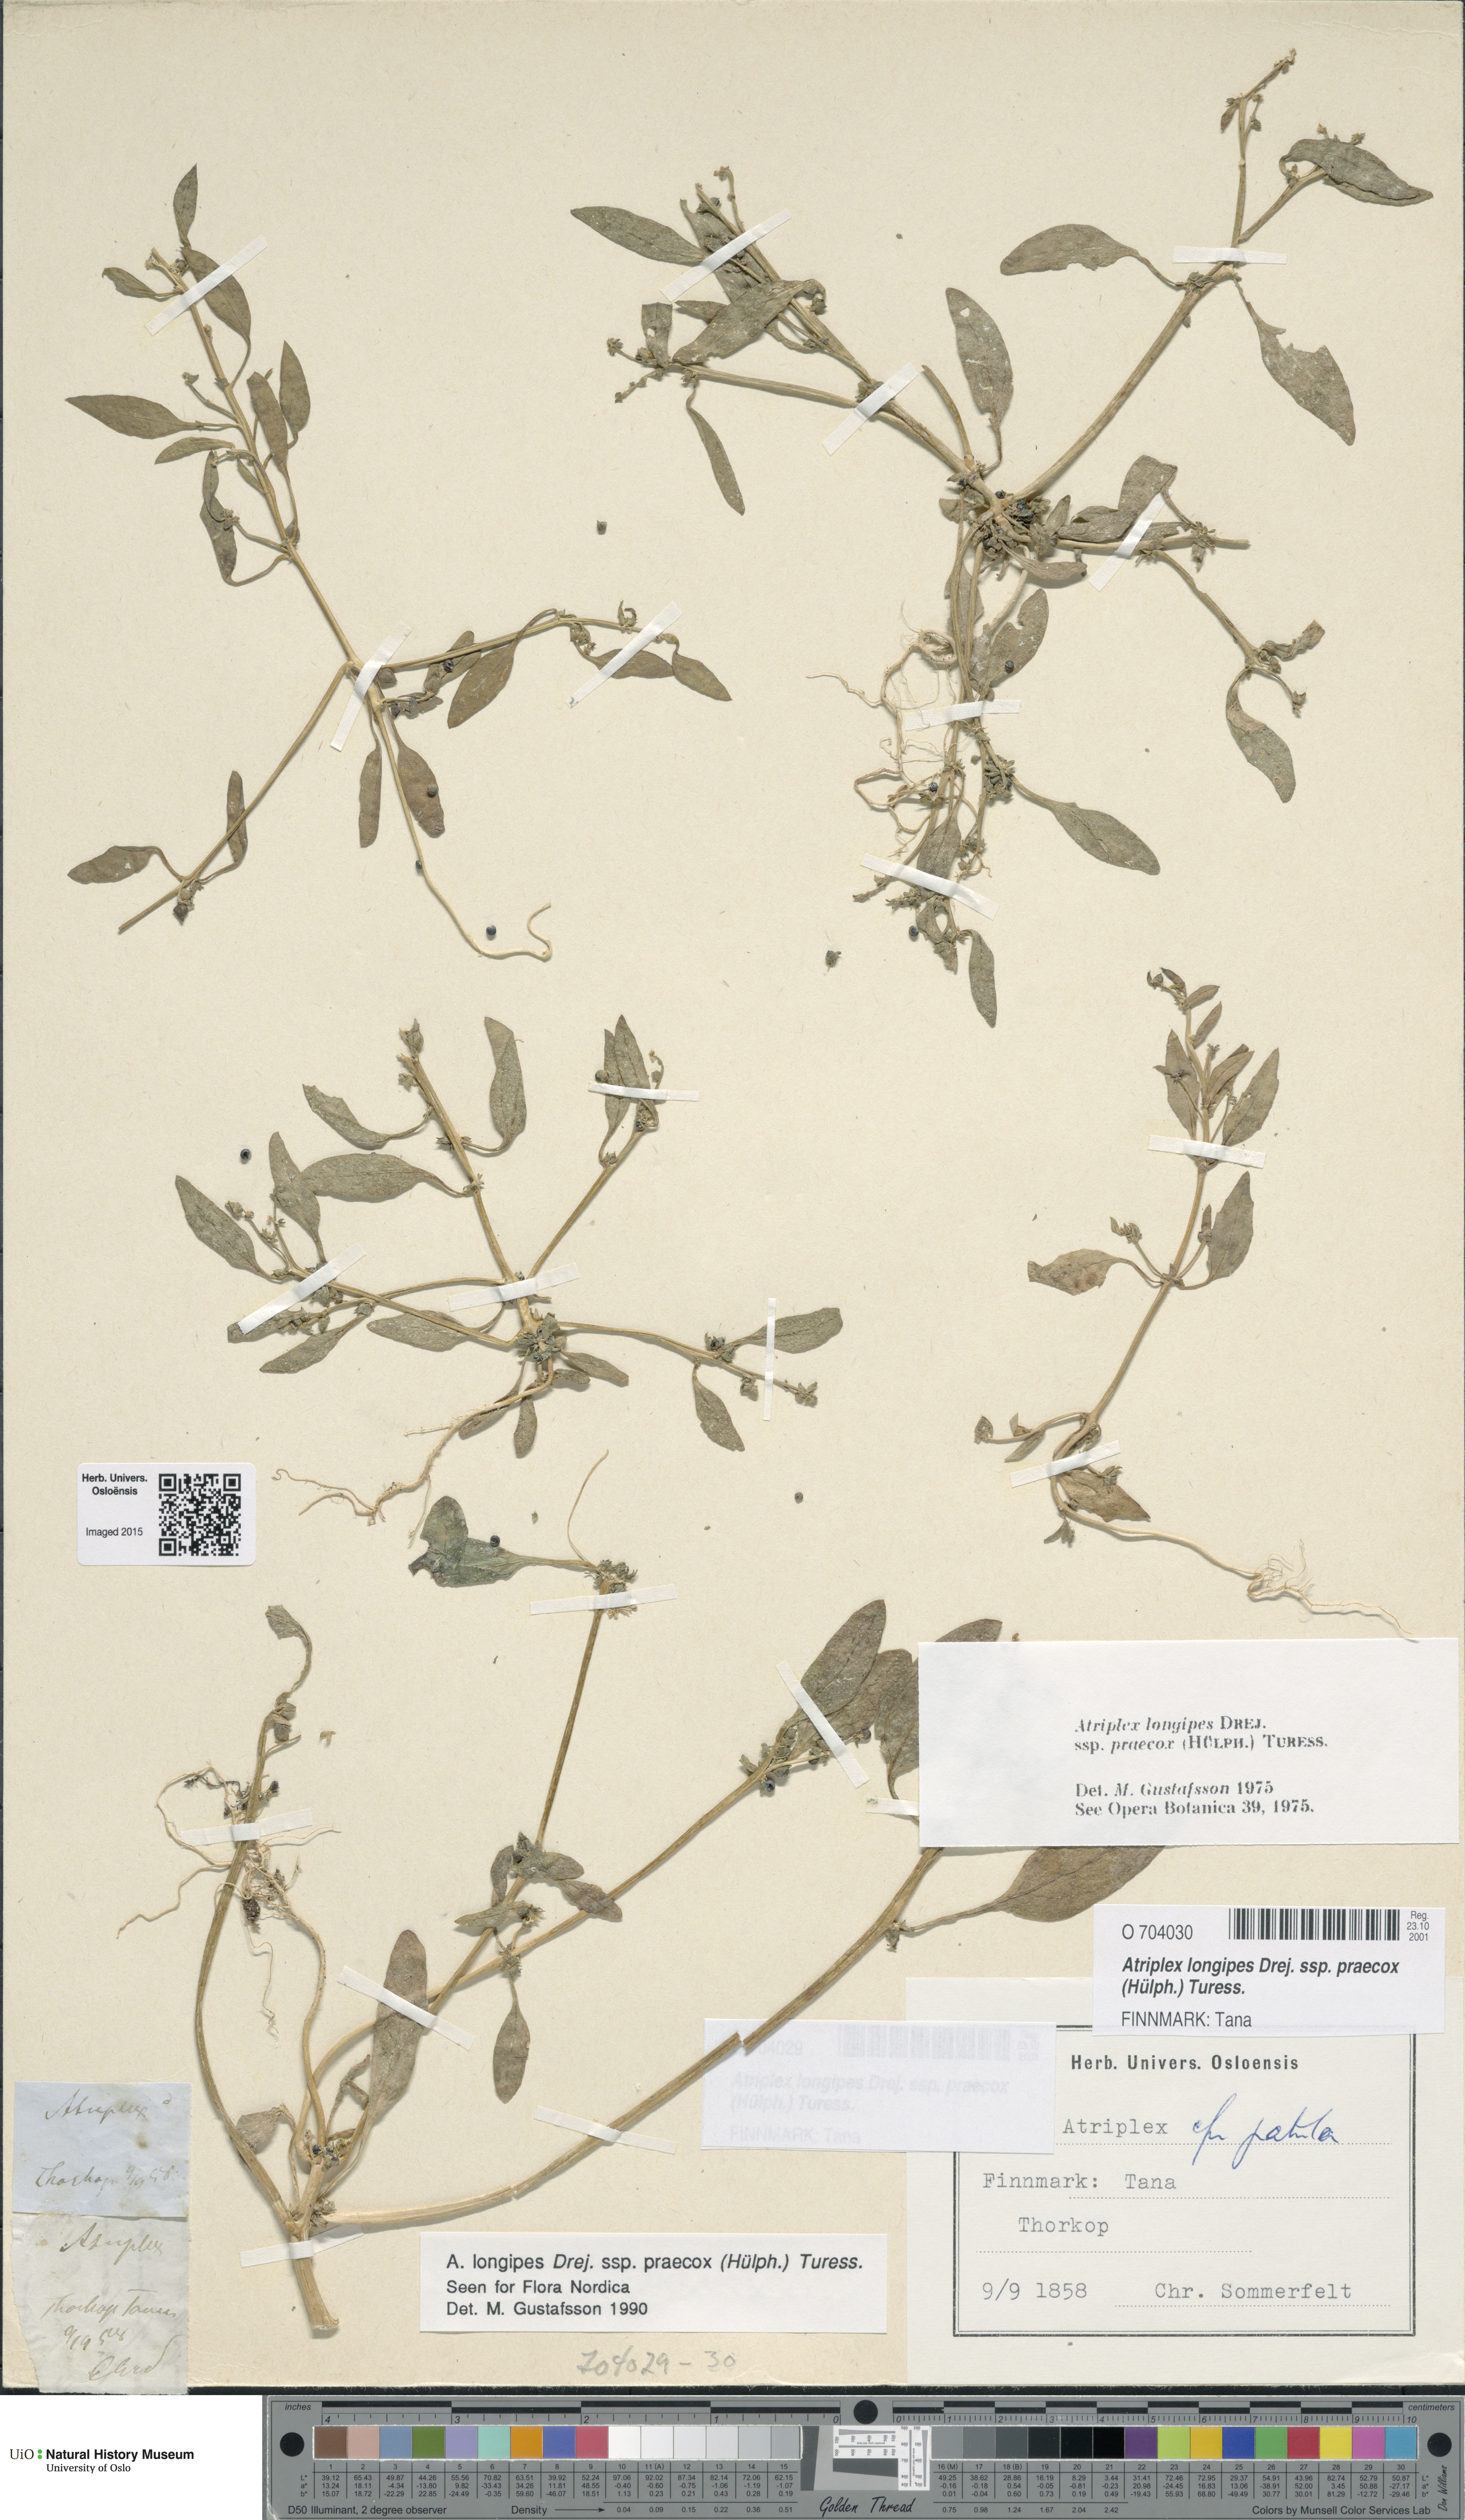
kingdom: Plantae
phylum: Tracheophyta
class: Magnoliopsida
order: Caryophyllales
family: Amaranthaceae
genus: Atriplex
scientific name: Atriplex praecox
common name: Early orache
